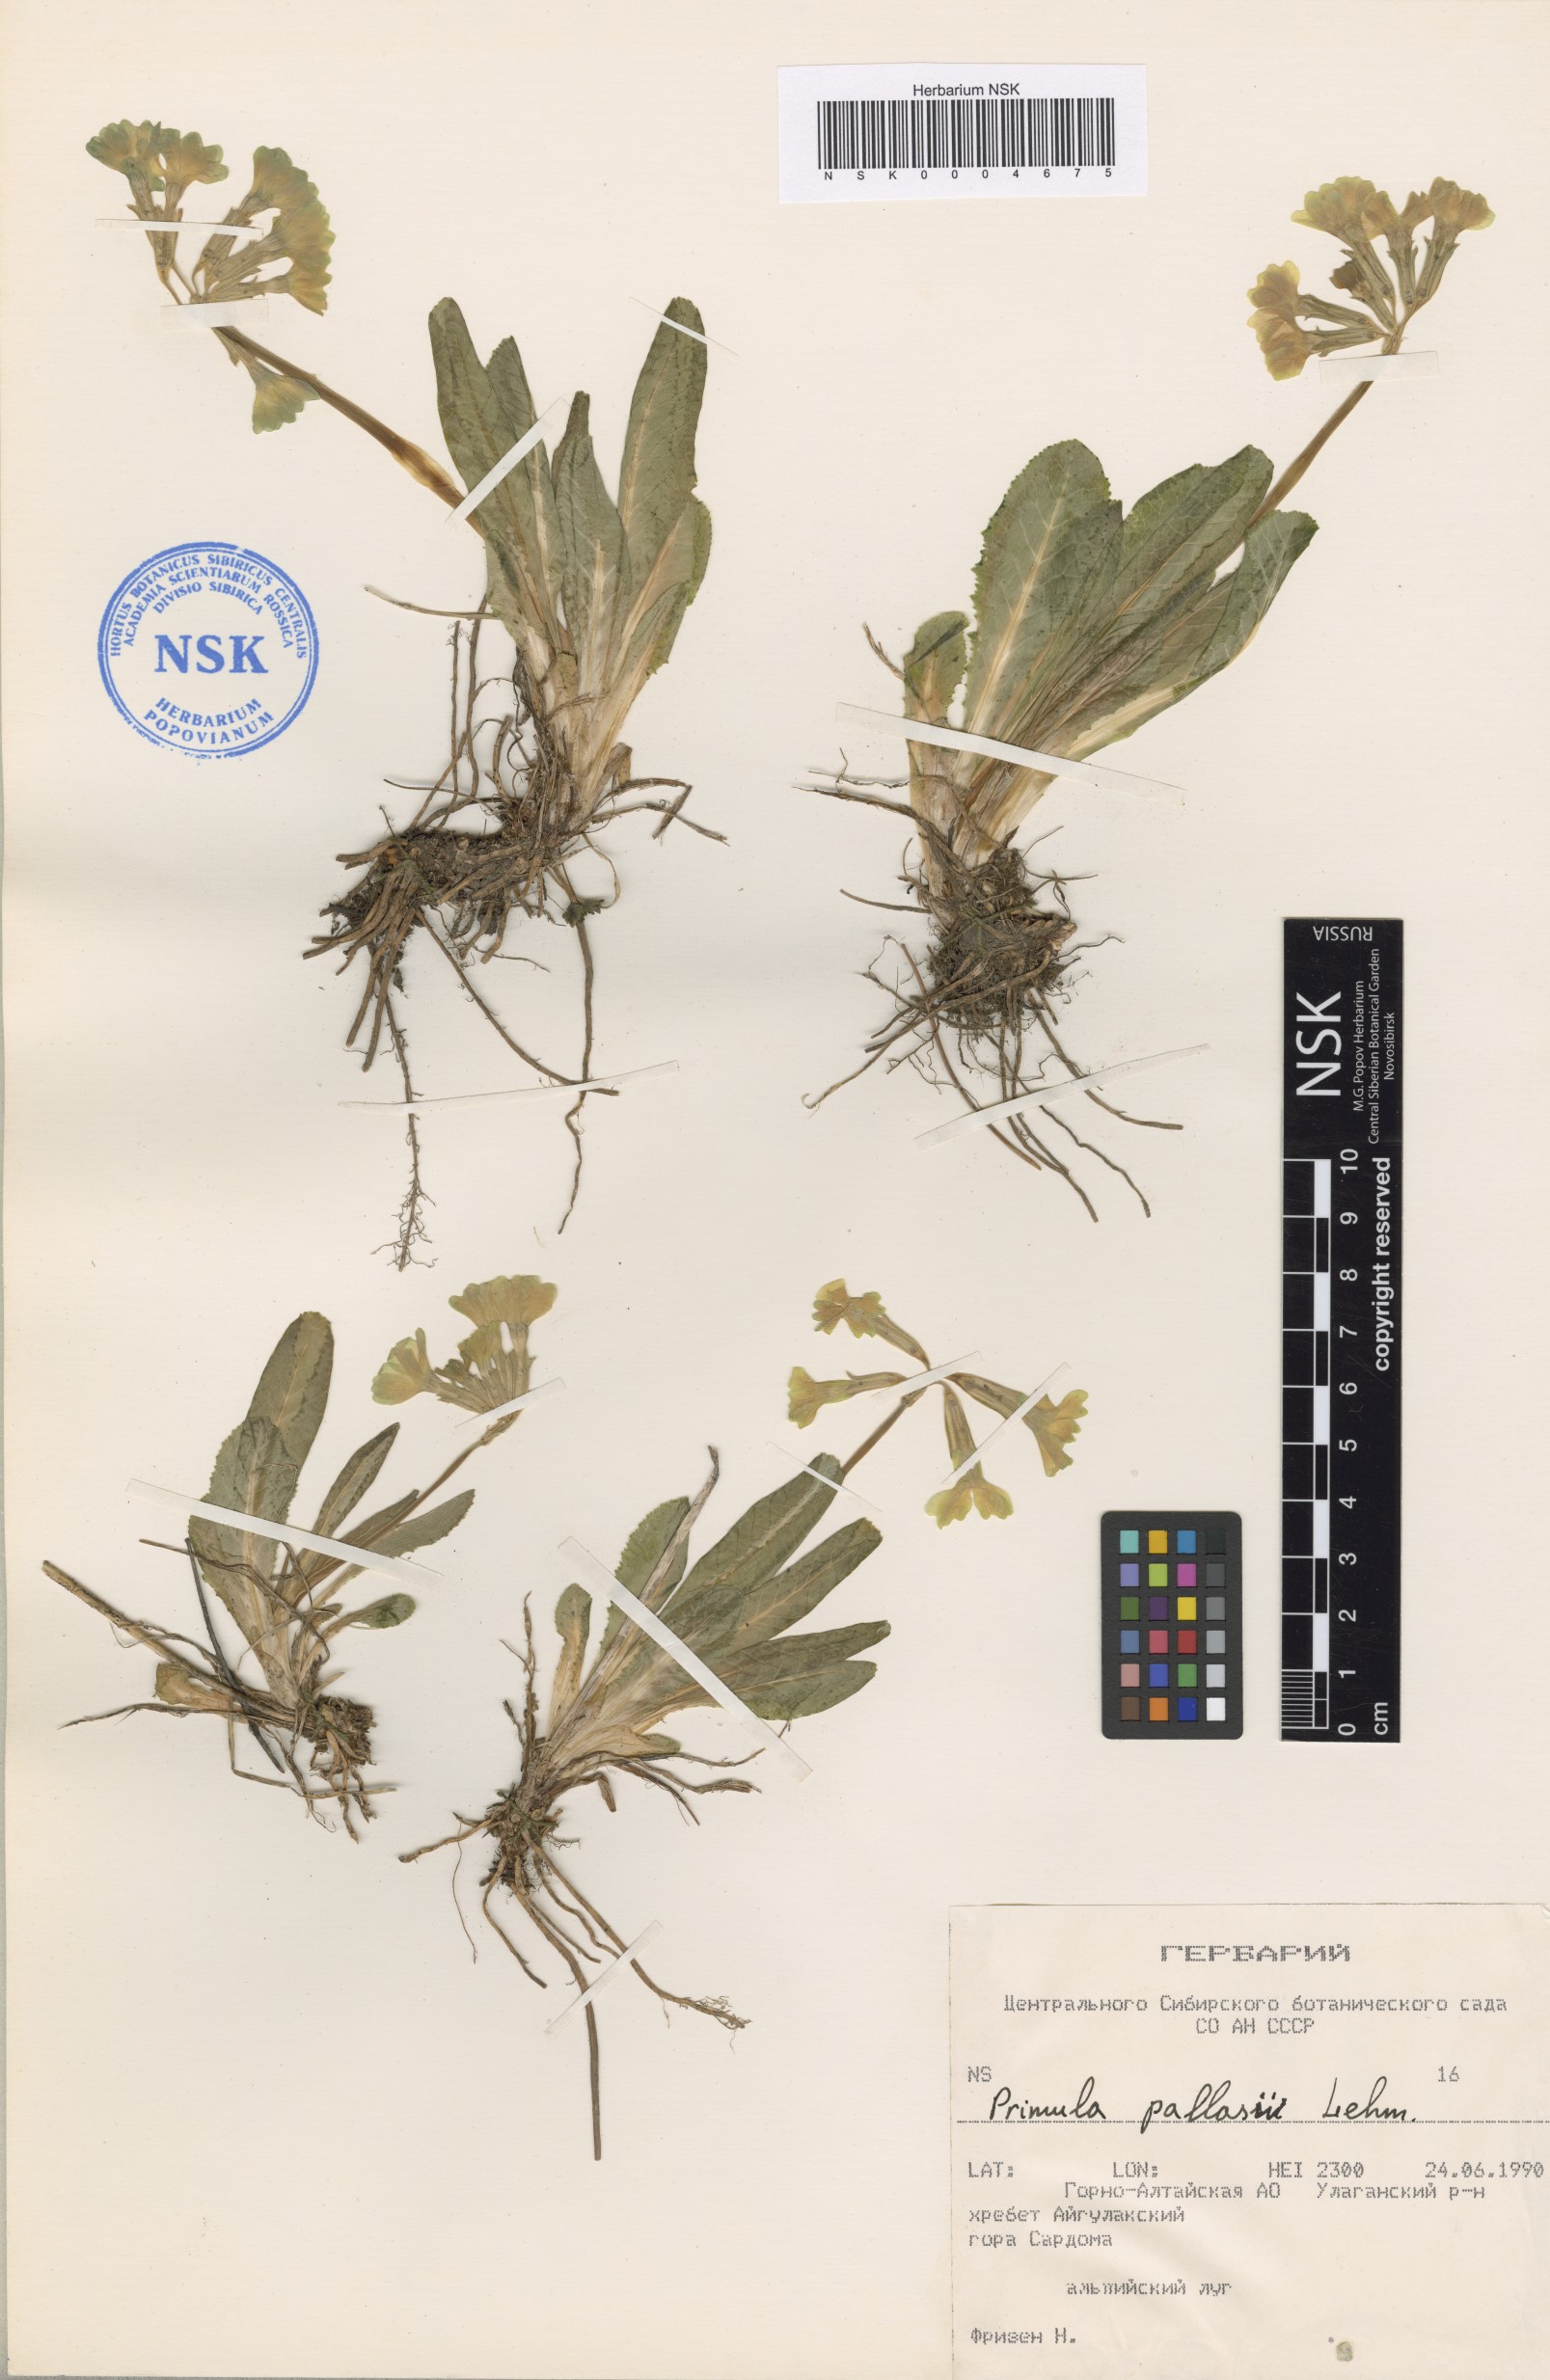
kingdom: Plantae
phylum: Tracheophyta
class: Magnoliopsida
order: Ericales
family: Primulaceae
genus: Primula
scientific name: Primula elatior
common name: Oxlip
